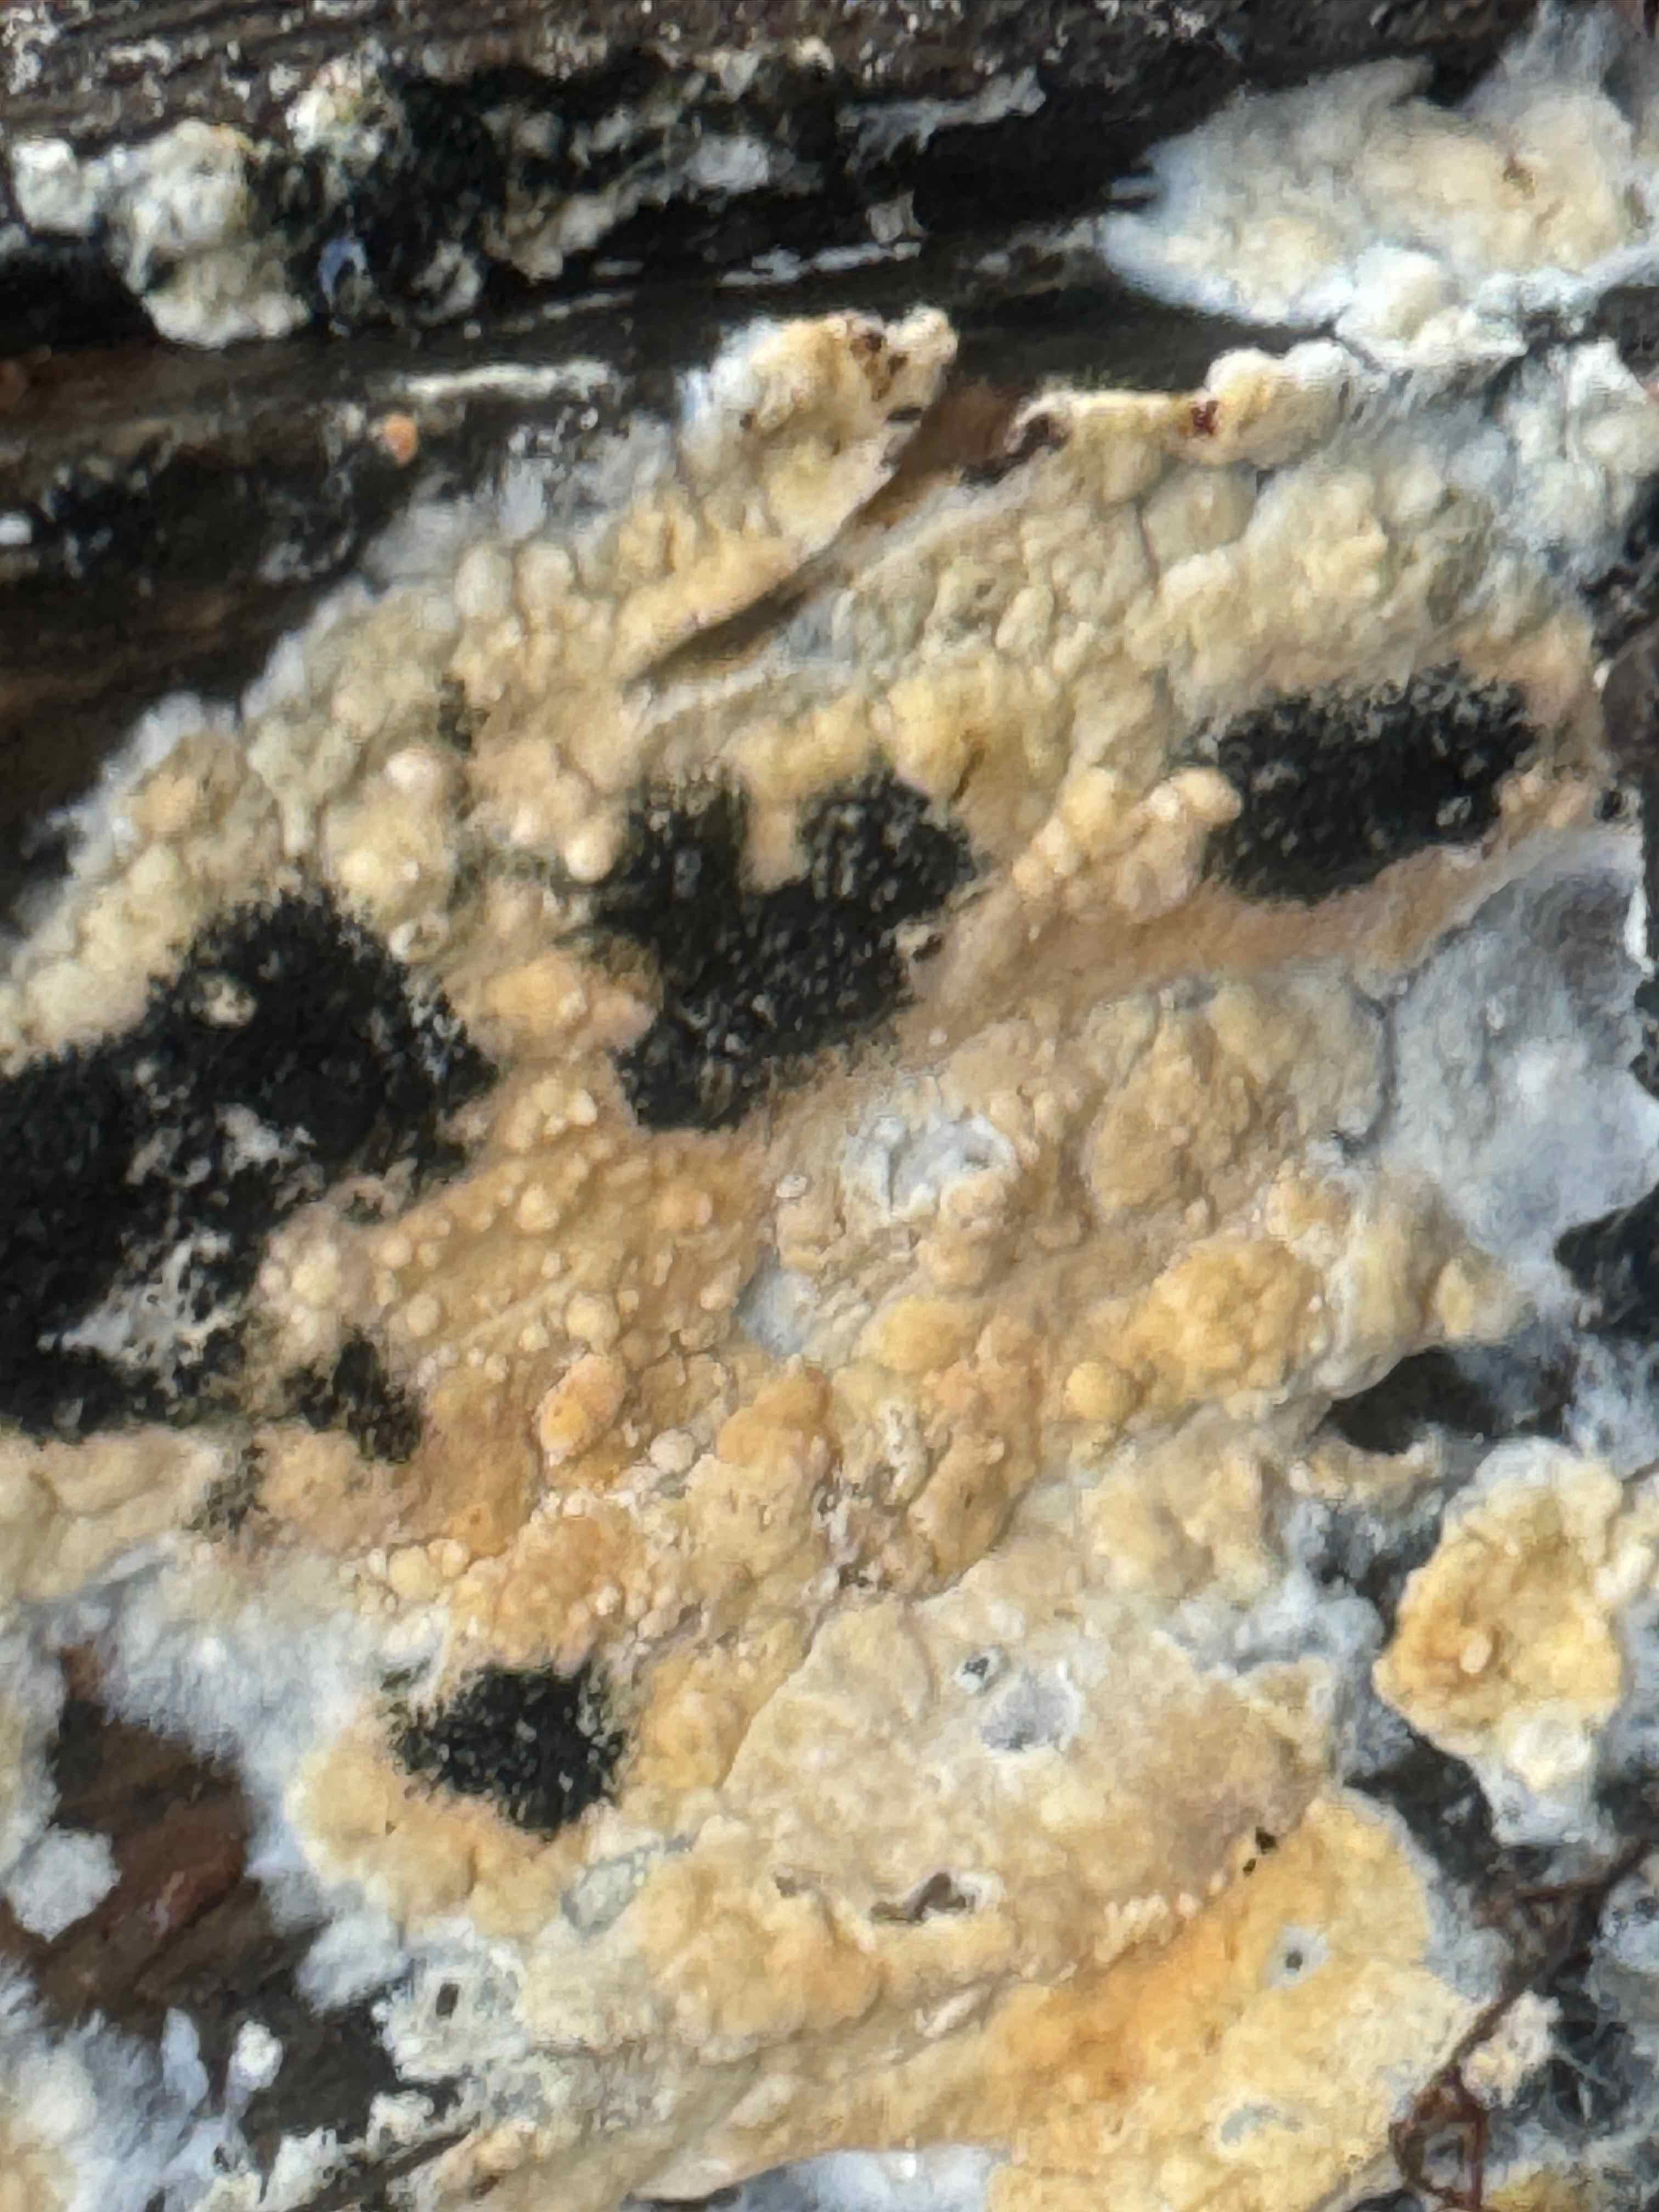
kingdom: Fungi
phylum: Basidiomycota
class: Agaricomycetes
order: Agaricales
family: Physalacriaceae
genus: Cylindrobasidium
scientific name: Cylindrobasidium evolvens
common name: sprækkehinde
